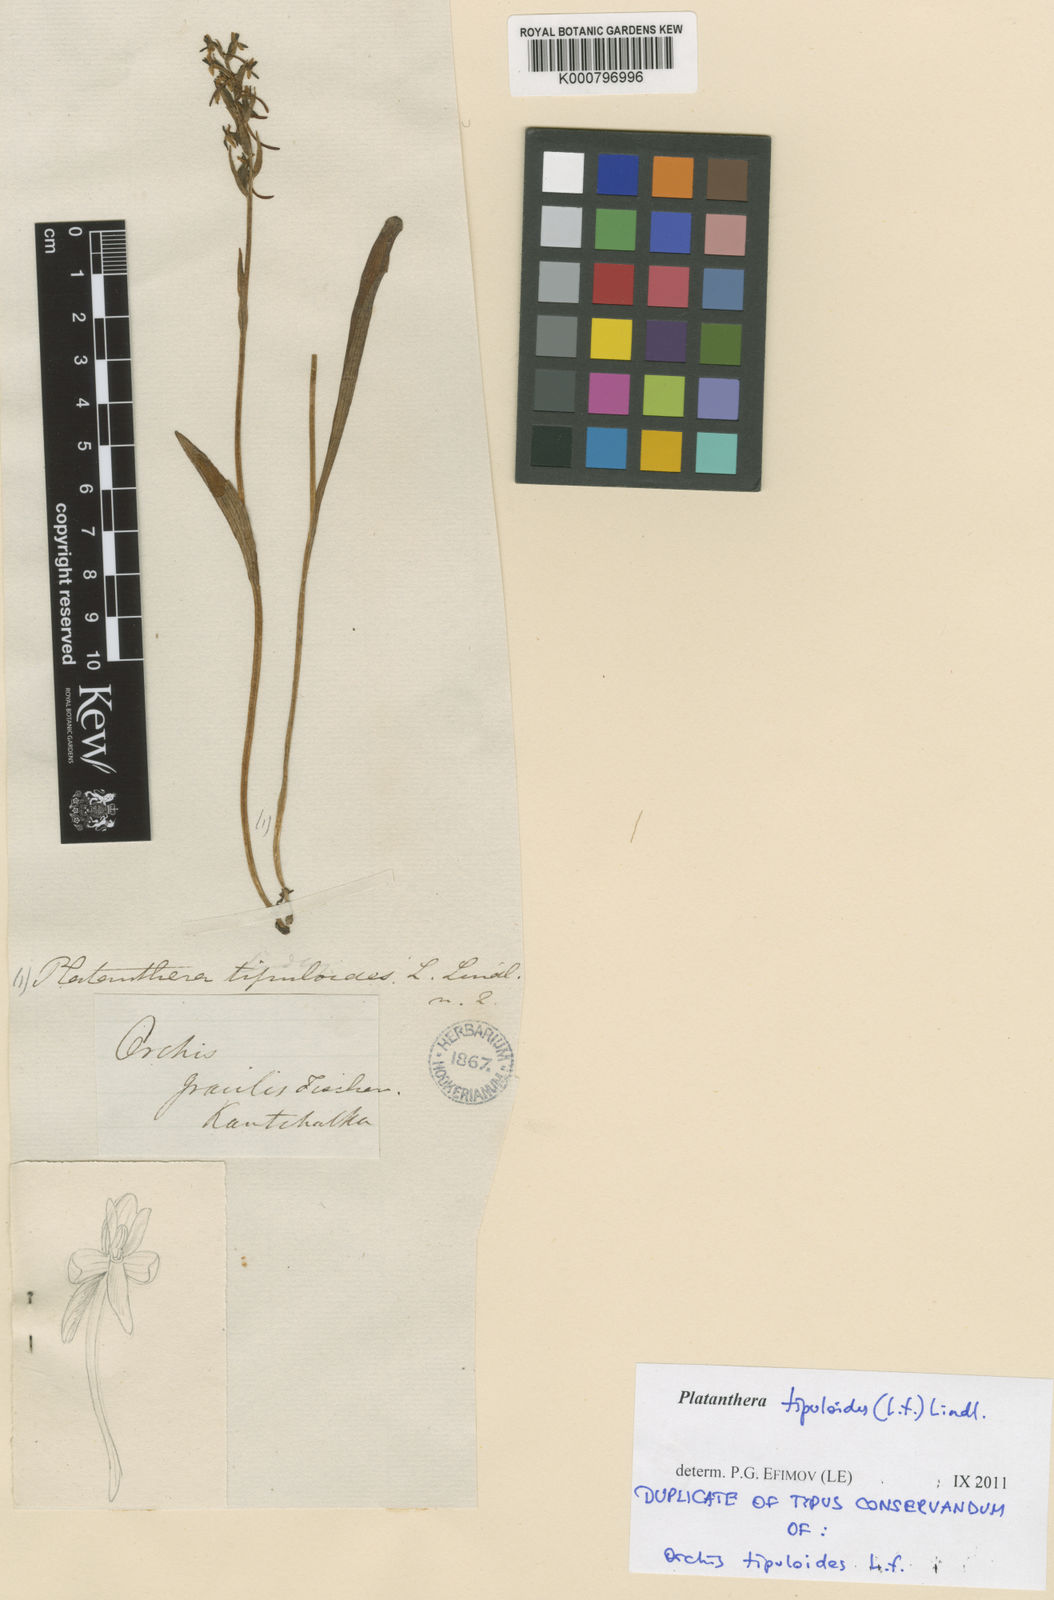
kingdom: Plantae
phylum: Tracheophyta
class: Liliopsida
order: Asparagales
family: Orchidaceae
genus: Platanthera
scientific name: Platanthera tipuloides
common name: Aleutian bog orchid
